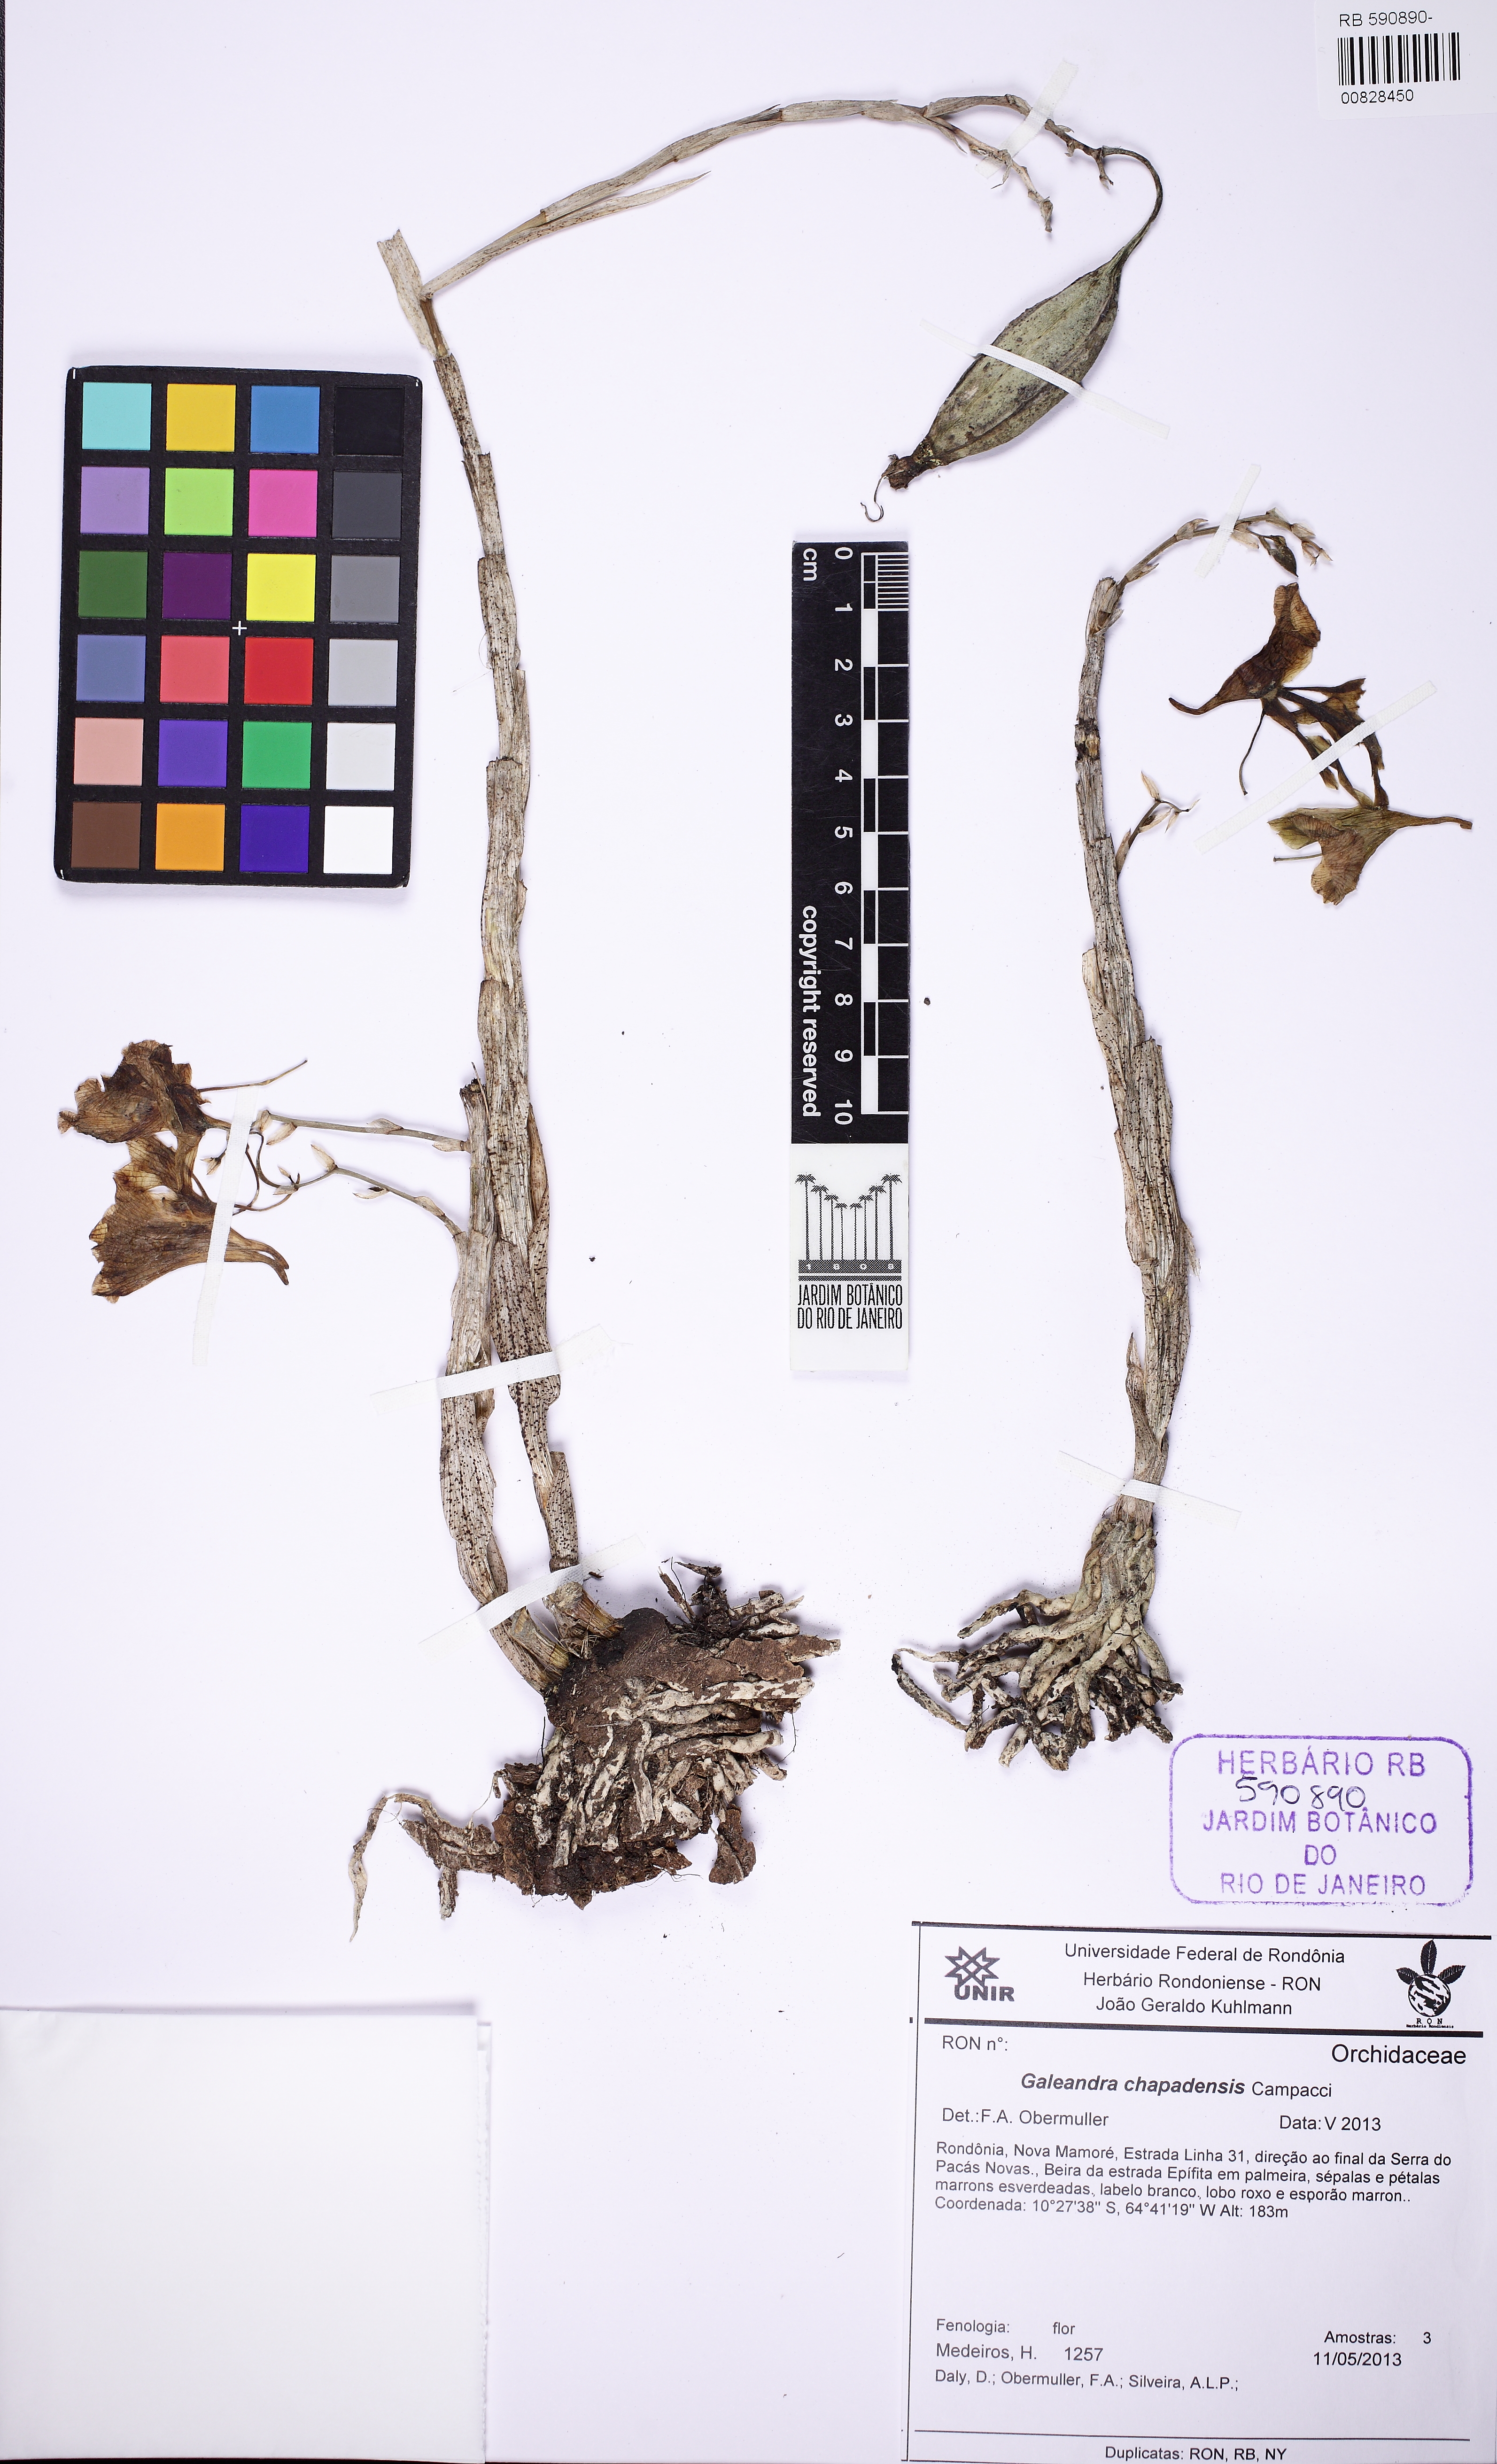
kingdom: Plantae
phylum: Tracheophyta
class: Liliopsida
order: Asparagales
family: Orchidaceae
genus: Galeandra
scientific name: Galeandra blanchetii
